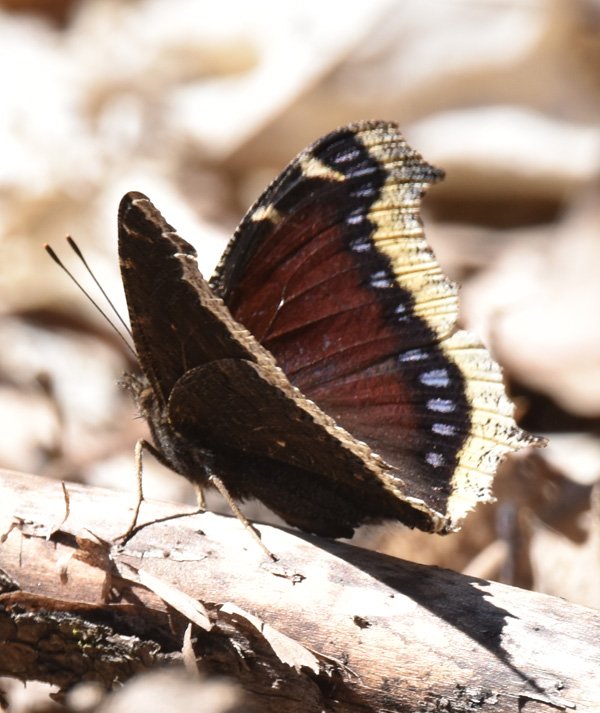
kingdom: Animalia
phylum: Arthropoda
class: Insecta
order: Lepidoptera
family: Nymphalidae
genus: Nymphalis
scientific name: Nymphalis antiopa
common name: Mourning Cloak
